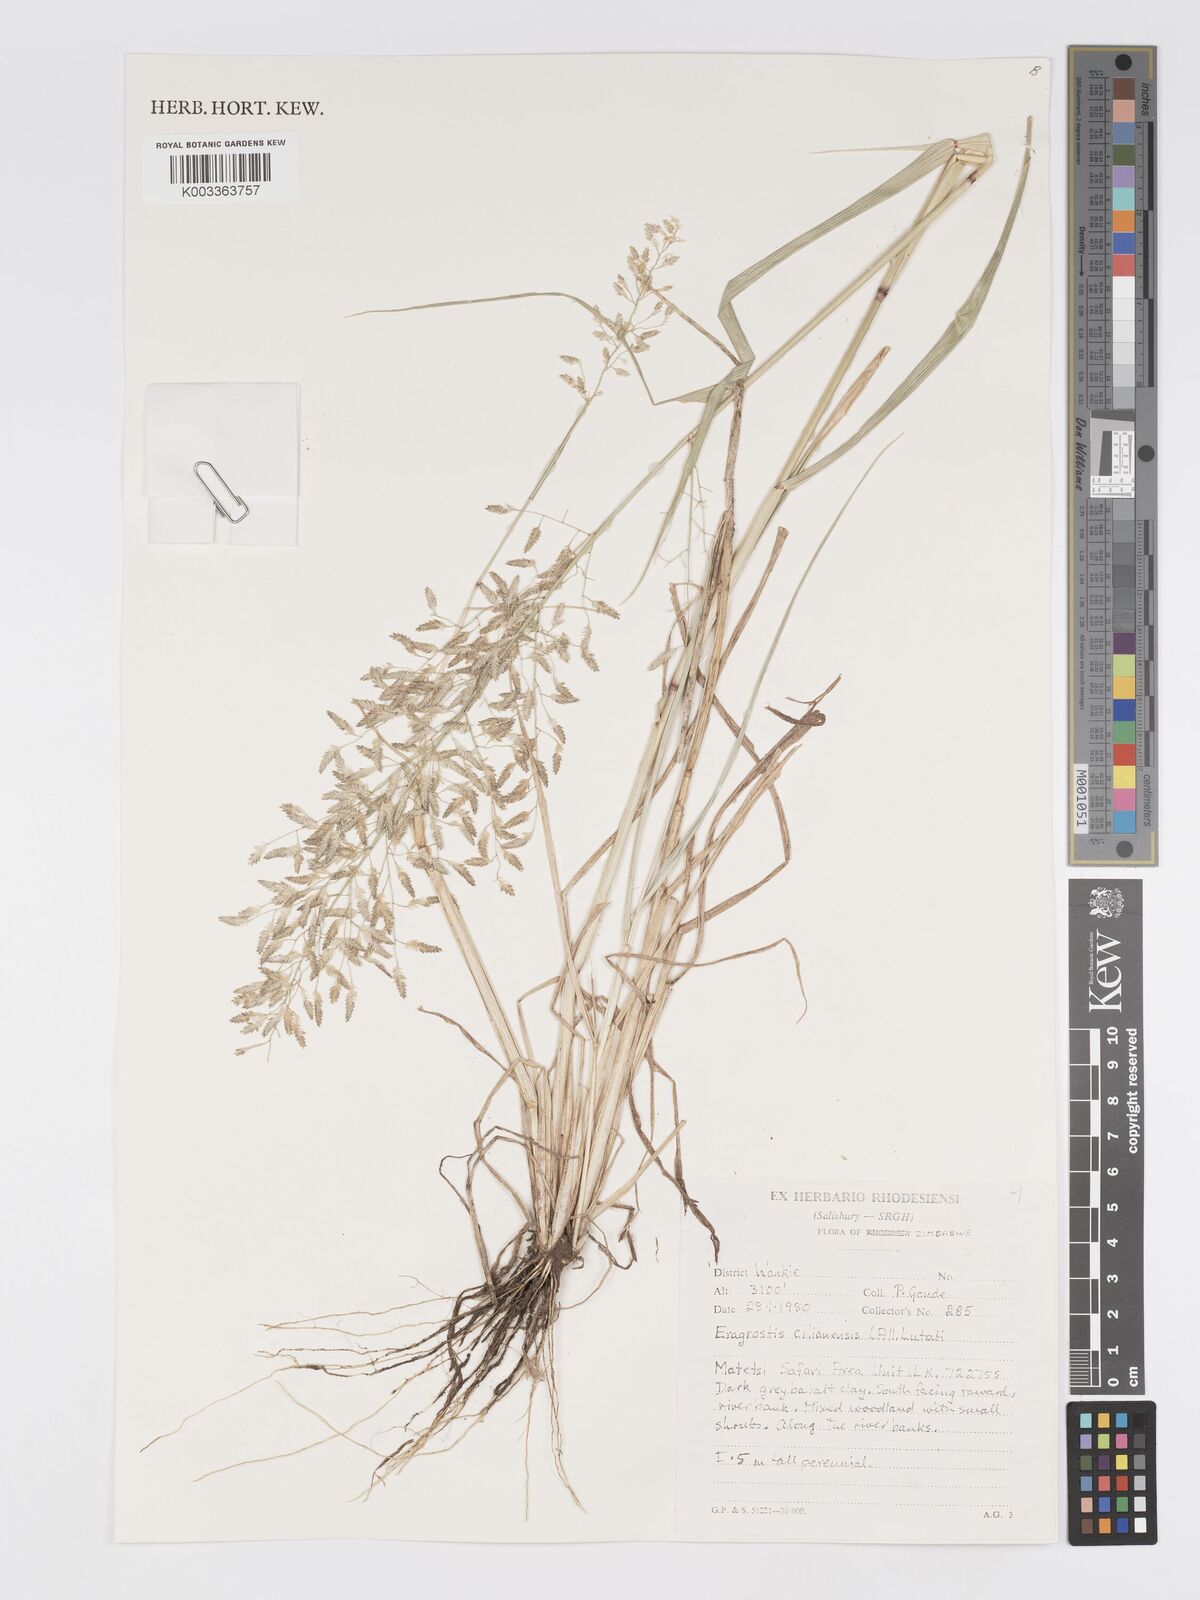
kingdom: Plantae
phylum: Tracheophyta
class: Liliopsida
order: Poales
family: Poaceae
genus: Eragrostis
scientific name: Eragrostis cilianensis
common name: Stinkgrass
